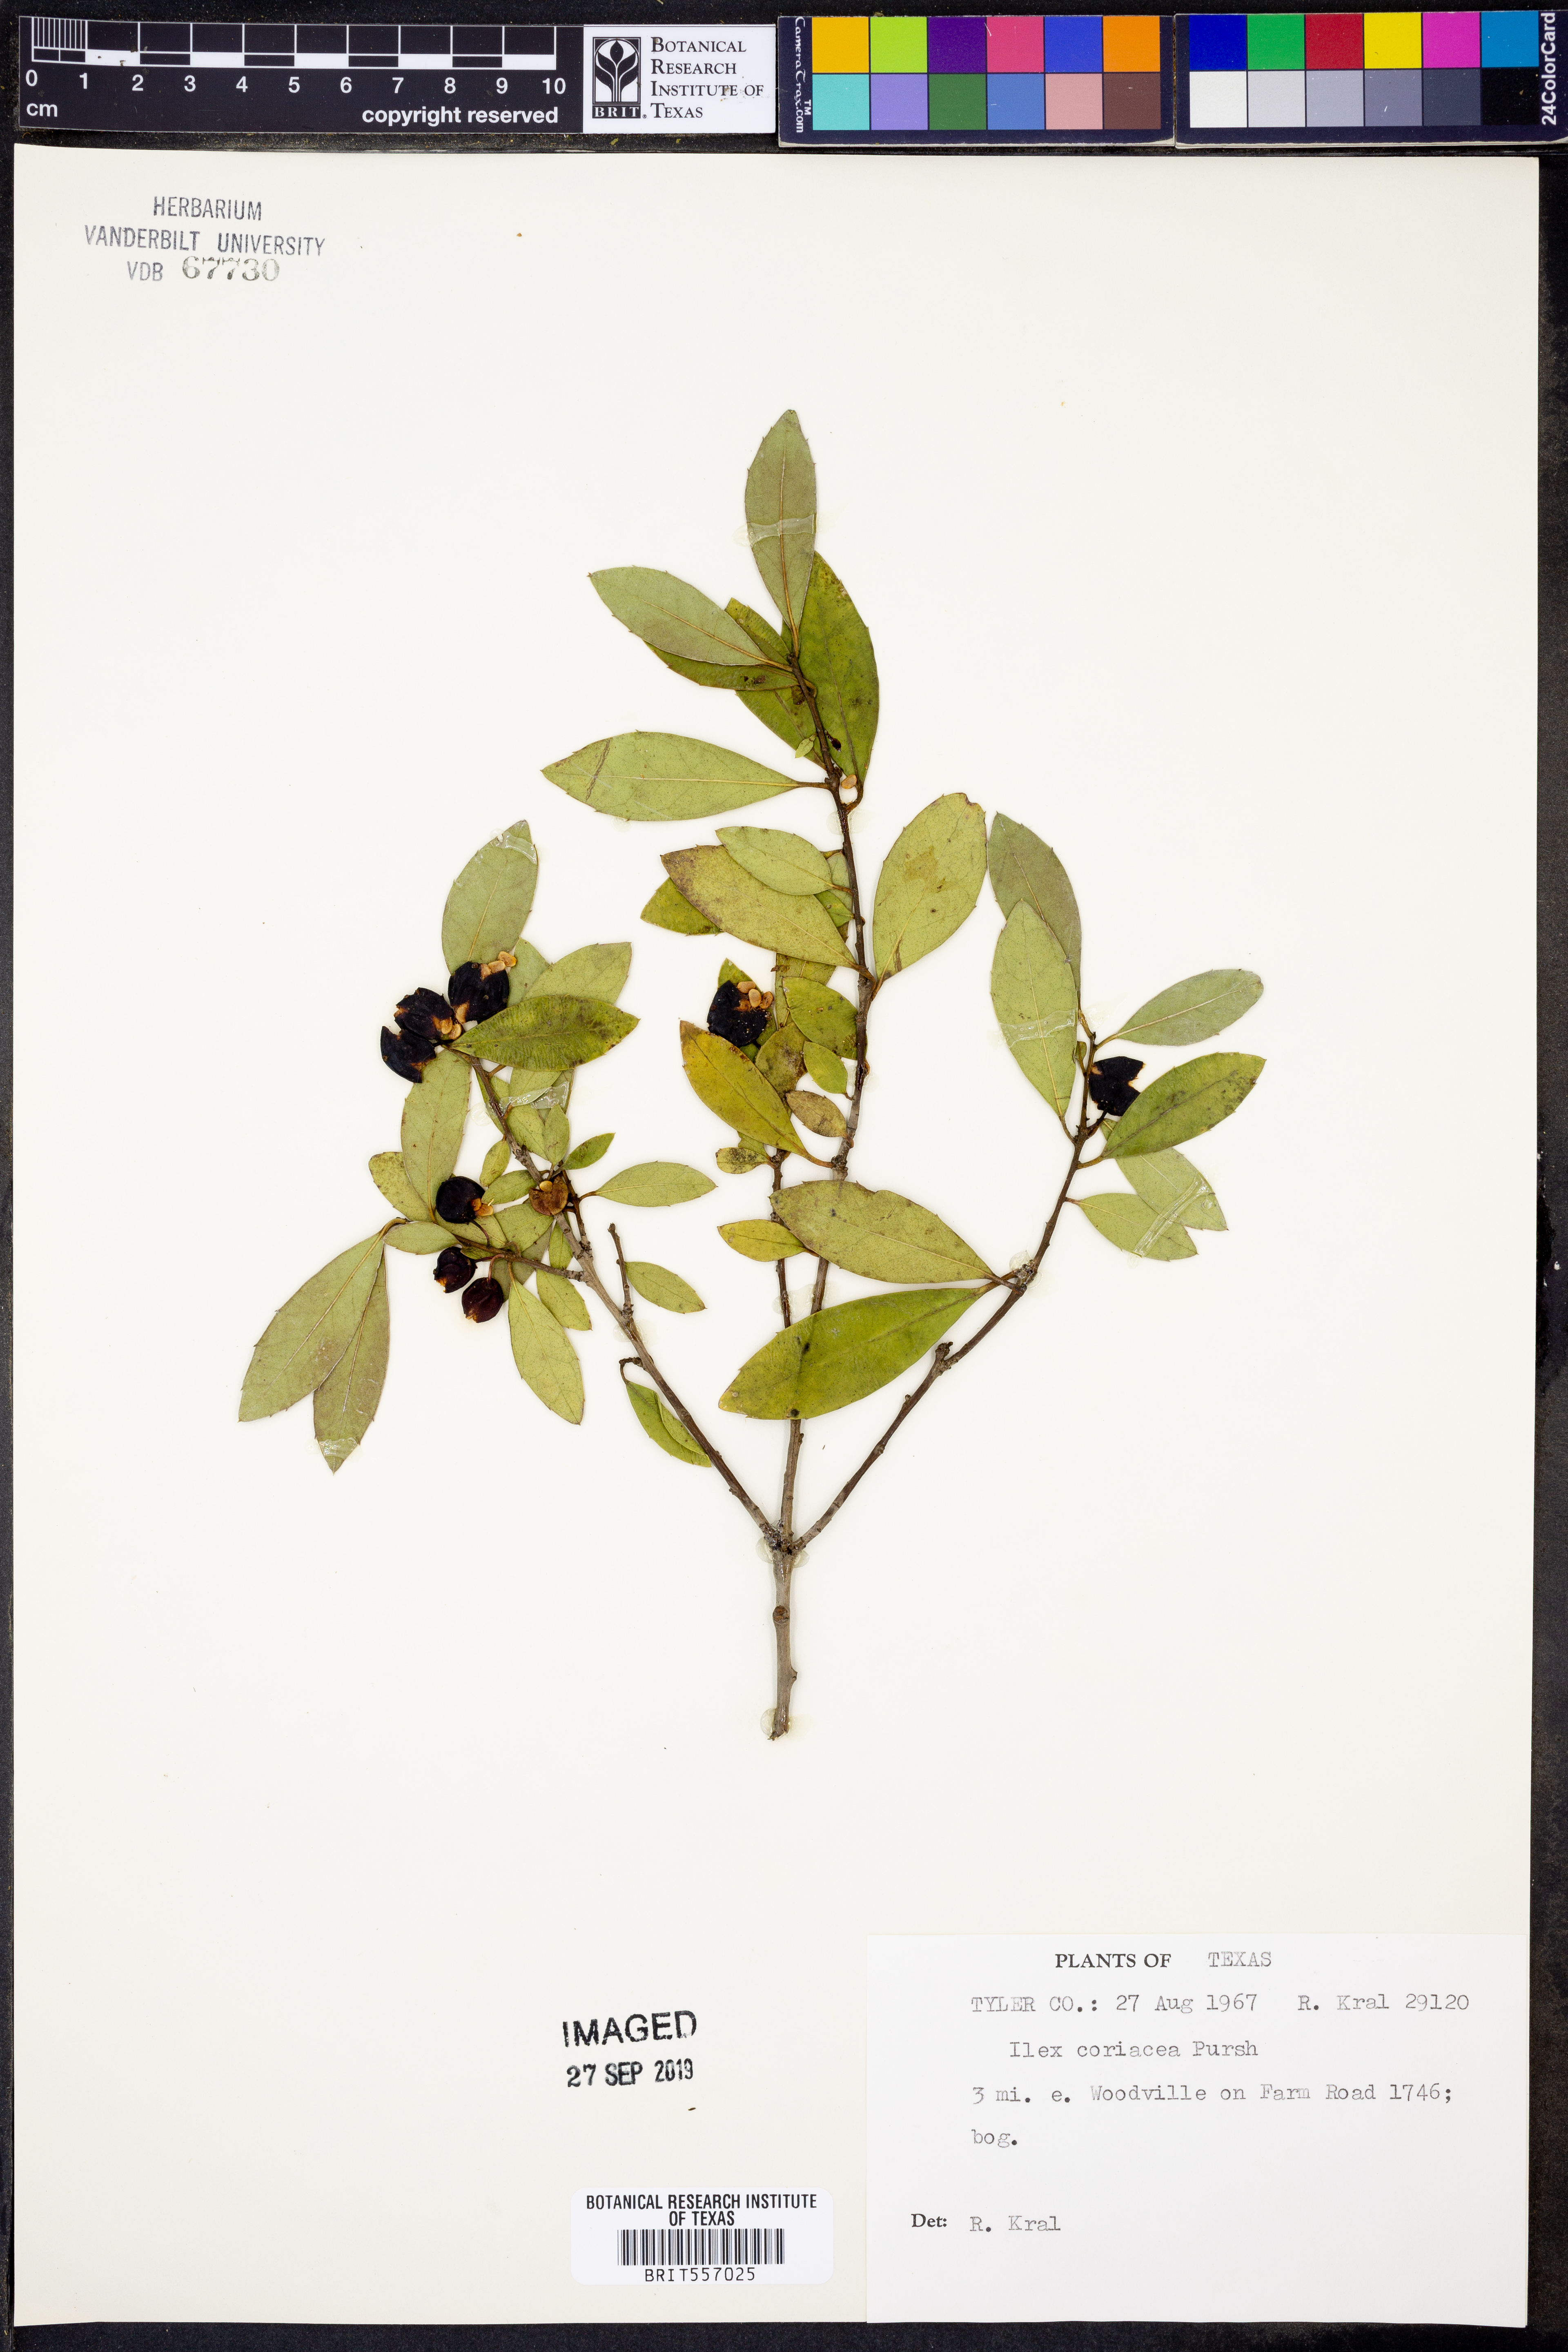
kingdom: Plantae
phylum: Tracheophyta
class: Magnoliopsida
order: Aquifoliales
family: Aquifoliaceae
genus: Ilex
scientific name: Ilex coriacea
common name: Sweet gallberry
